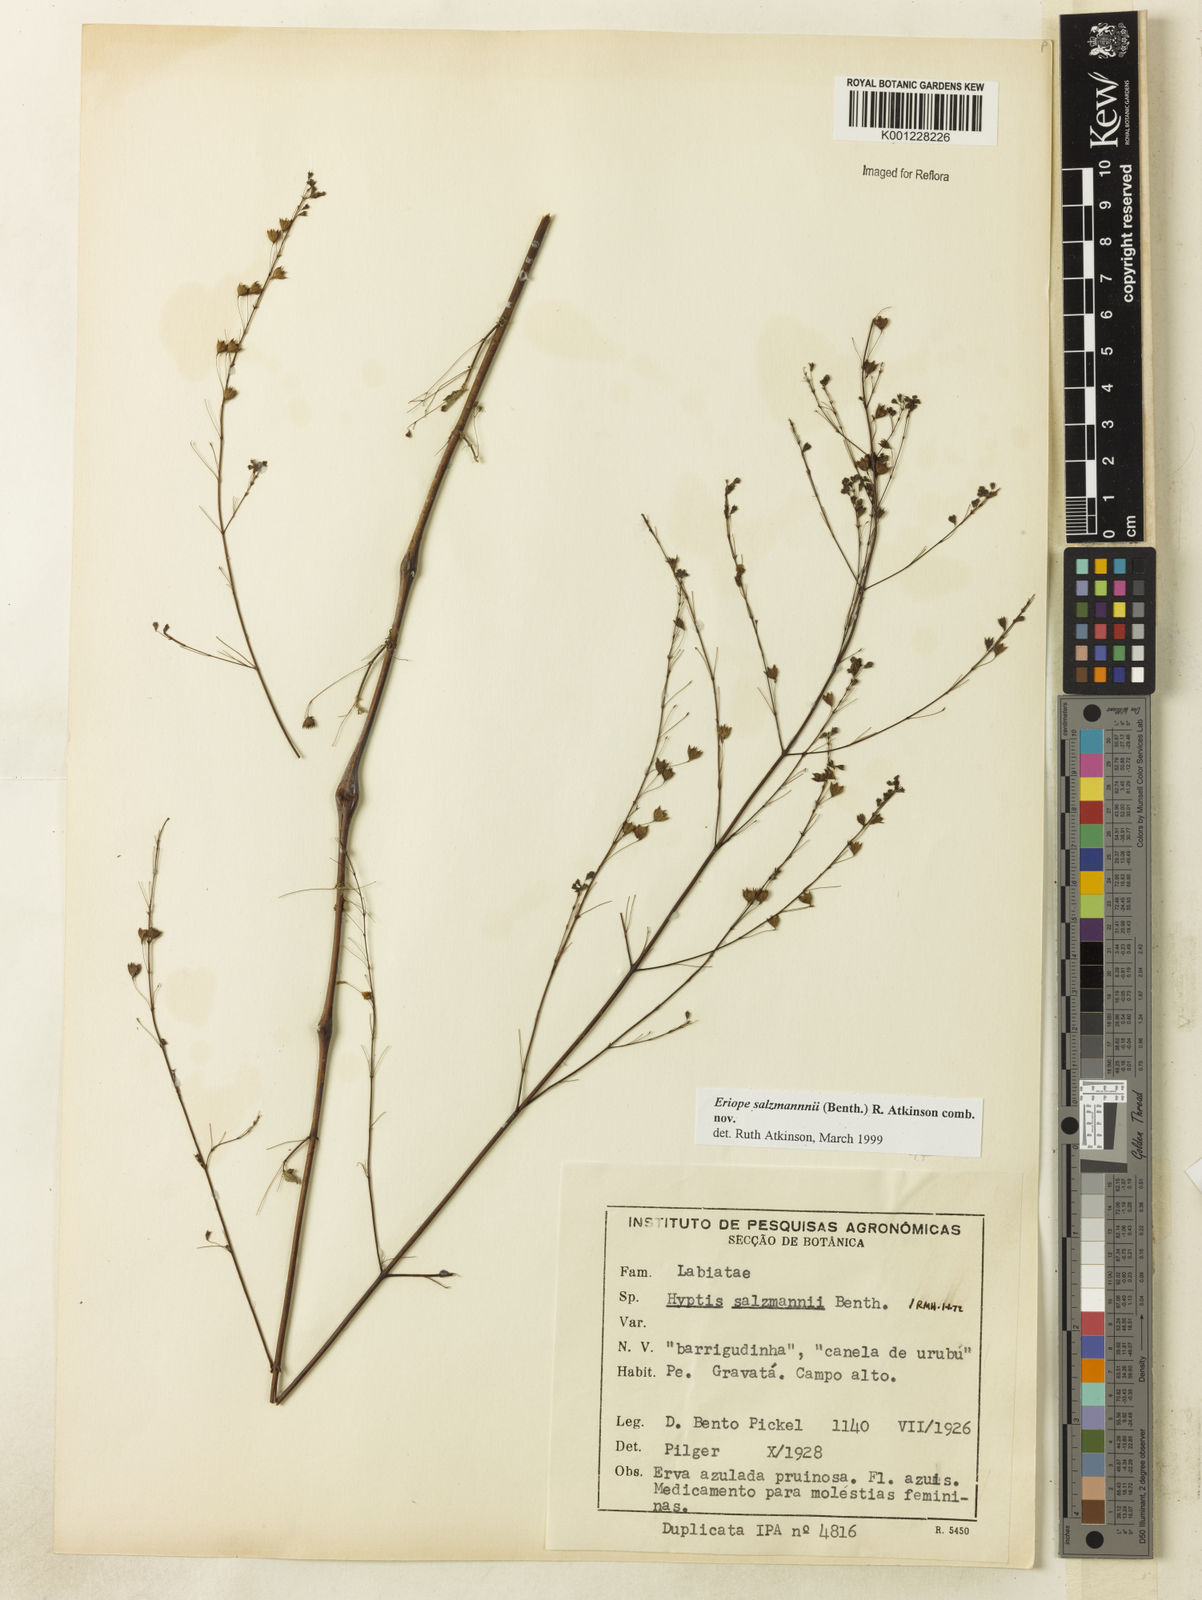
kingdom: Plantae
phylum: Tracheophyta
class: Magnoliopsida
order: Lamiales
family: Lamiaceae
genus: Hypenia
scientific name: Hypenia salzmannii
